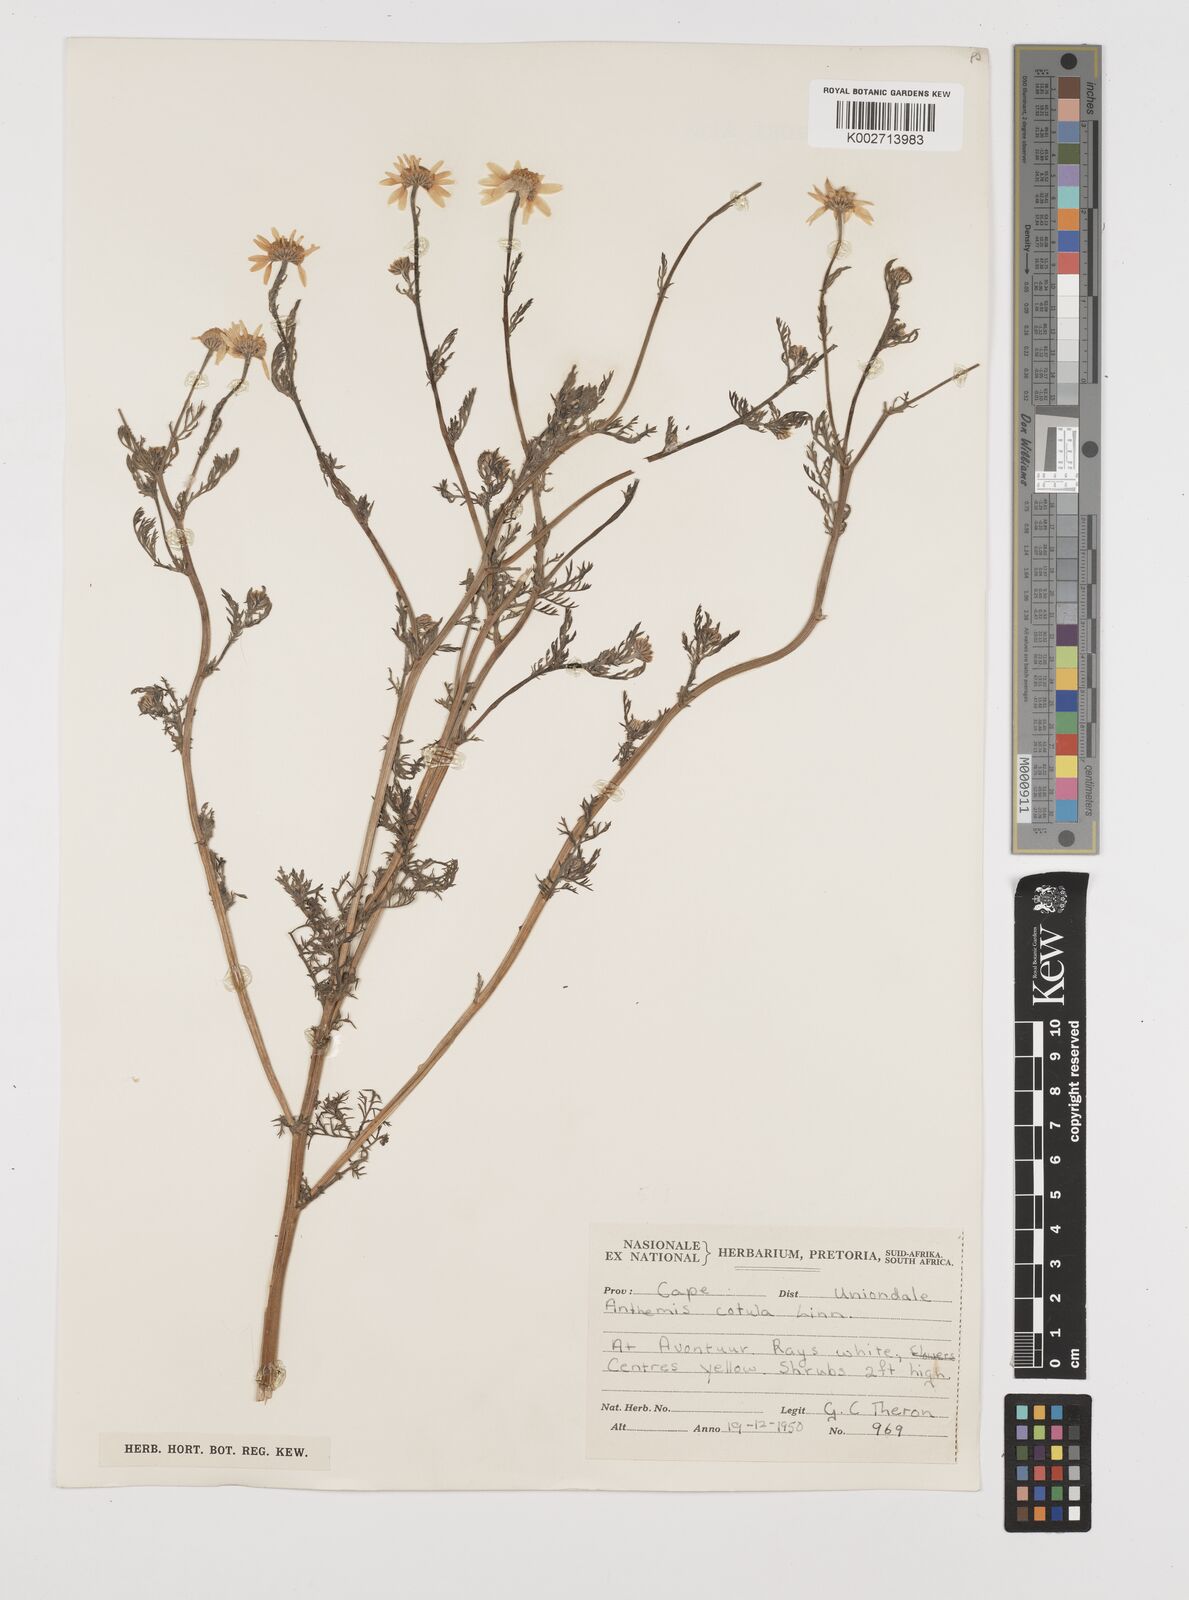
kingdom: Plantae
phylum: Tracheophyta
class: Magnoliopsida
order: Asterales
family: Asteraceae
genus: Anthemis
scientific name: Anthemis cotula
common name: Stinking chamomile
